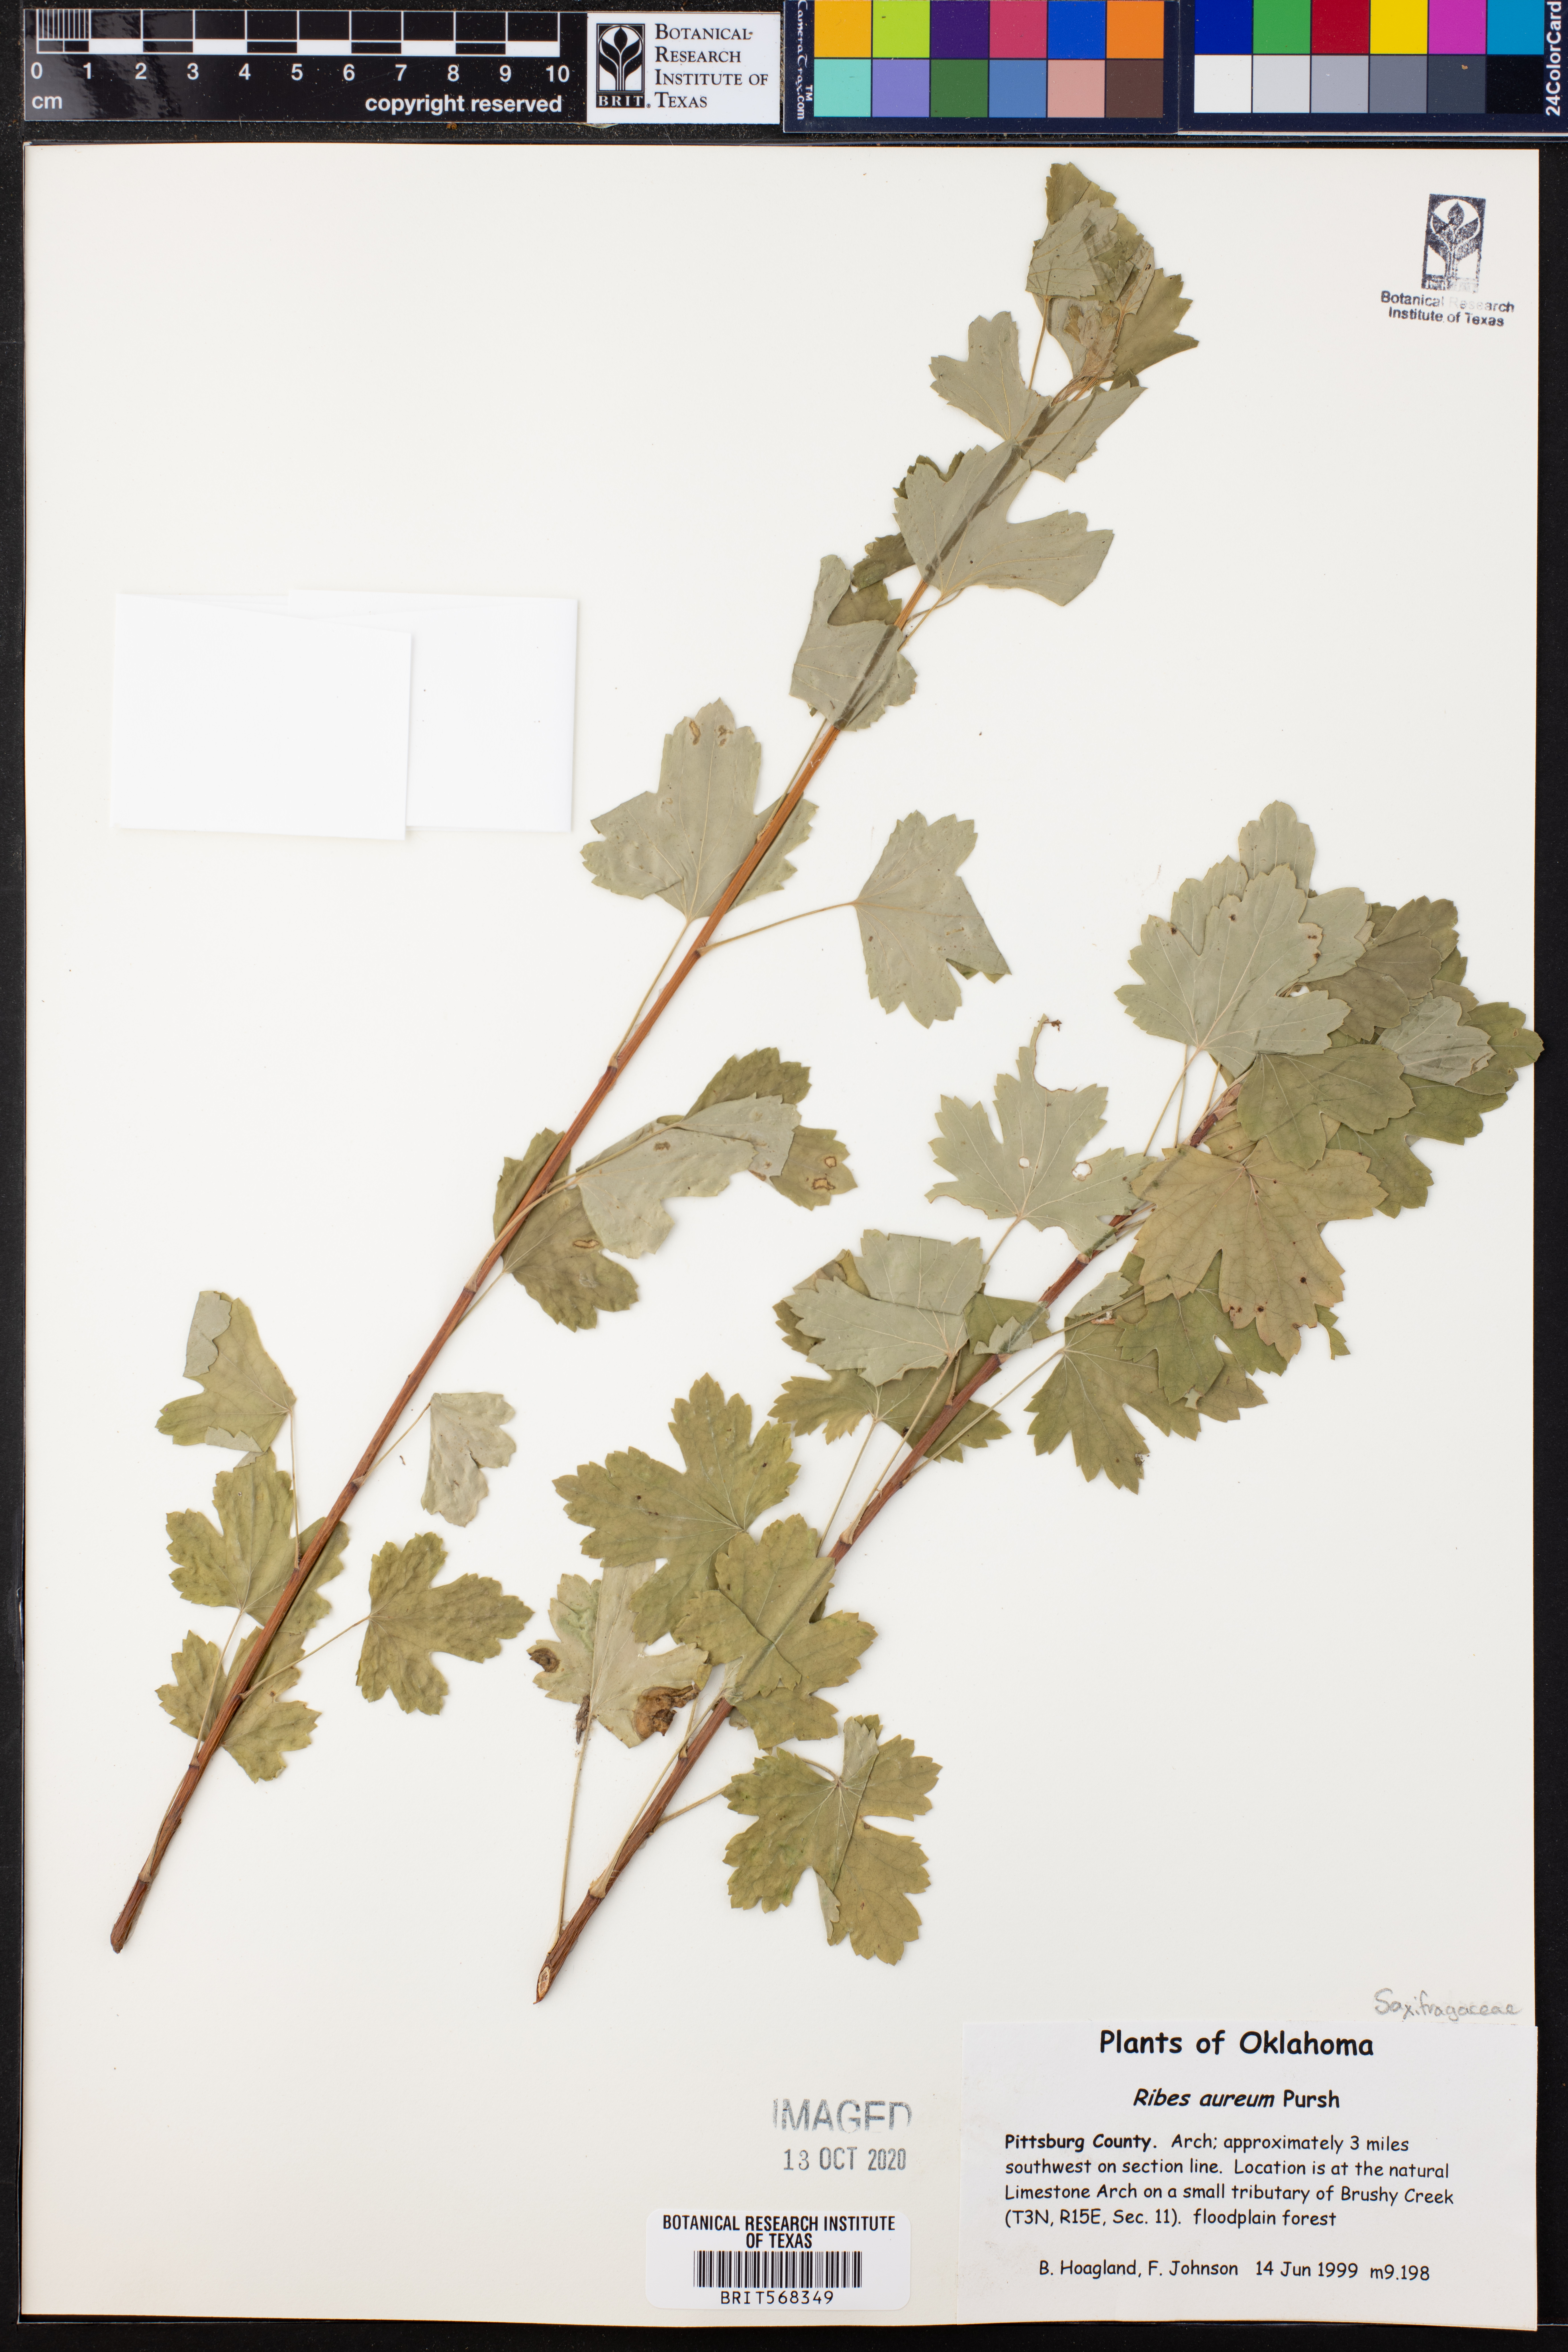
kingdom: Plantae
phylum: Tracheophyta
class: Magnoliopsida
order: Saxifragales
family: Grossulariaceae
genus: Ribes
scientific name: Ribes aureum
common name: Golden currant
